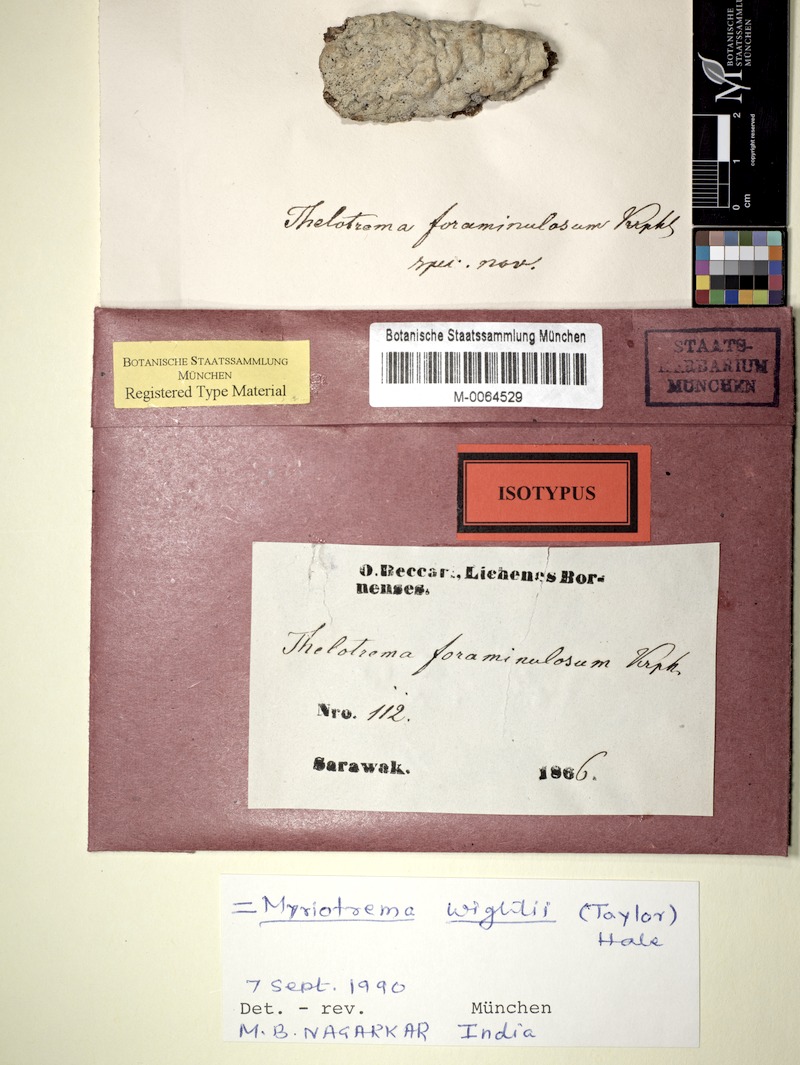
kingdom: Fungi
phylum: Ascomycota
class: Lecanoromycetes
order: Ostropales
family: Graphidaceae
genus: Sanguinotrema
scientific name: Sanguinotrema wightii
